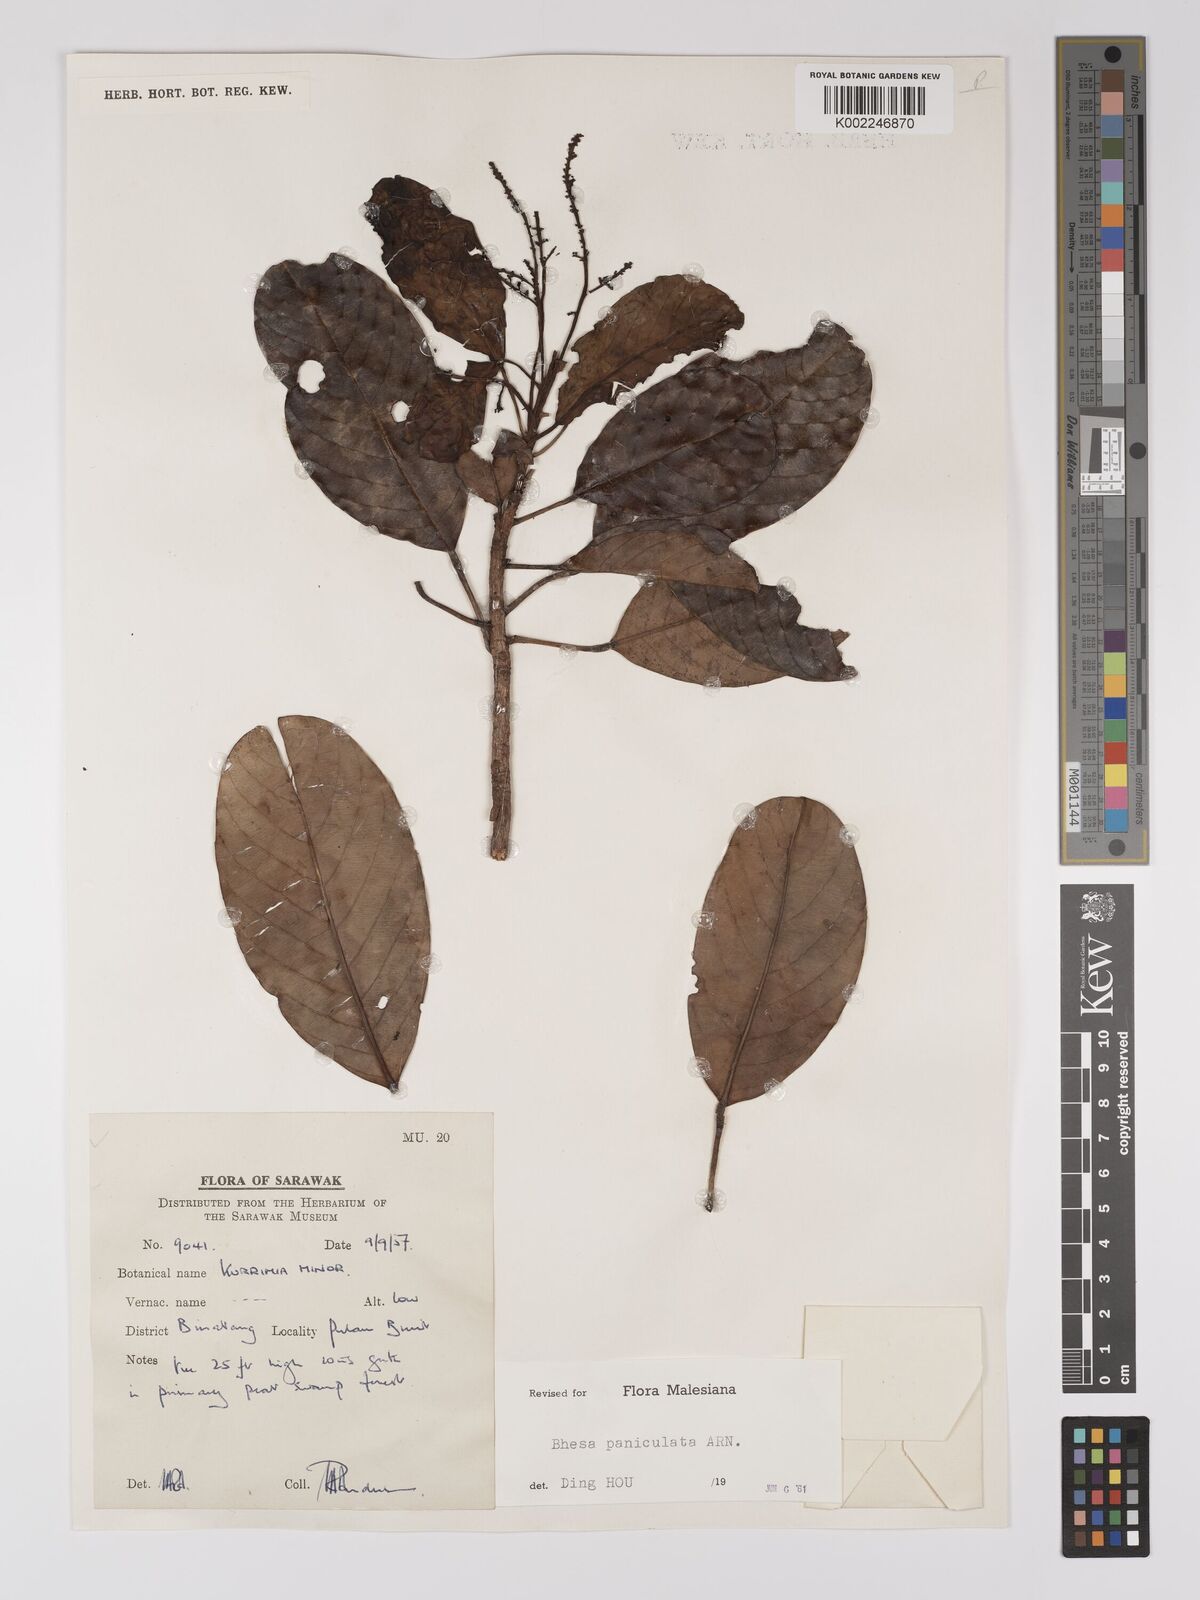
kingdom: Plantae
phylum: Tracheophyta
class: Magnoliopsida
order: Malpighiales
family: Centroplacaceae
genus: Bhesa
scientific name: Bhesa paniculata
